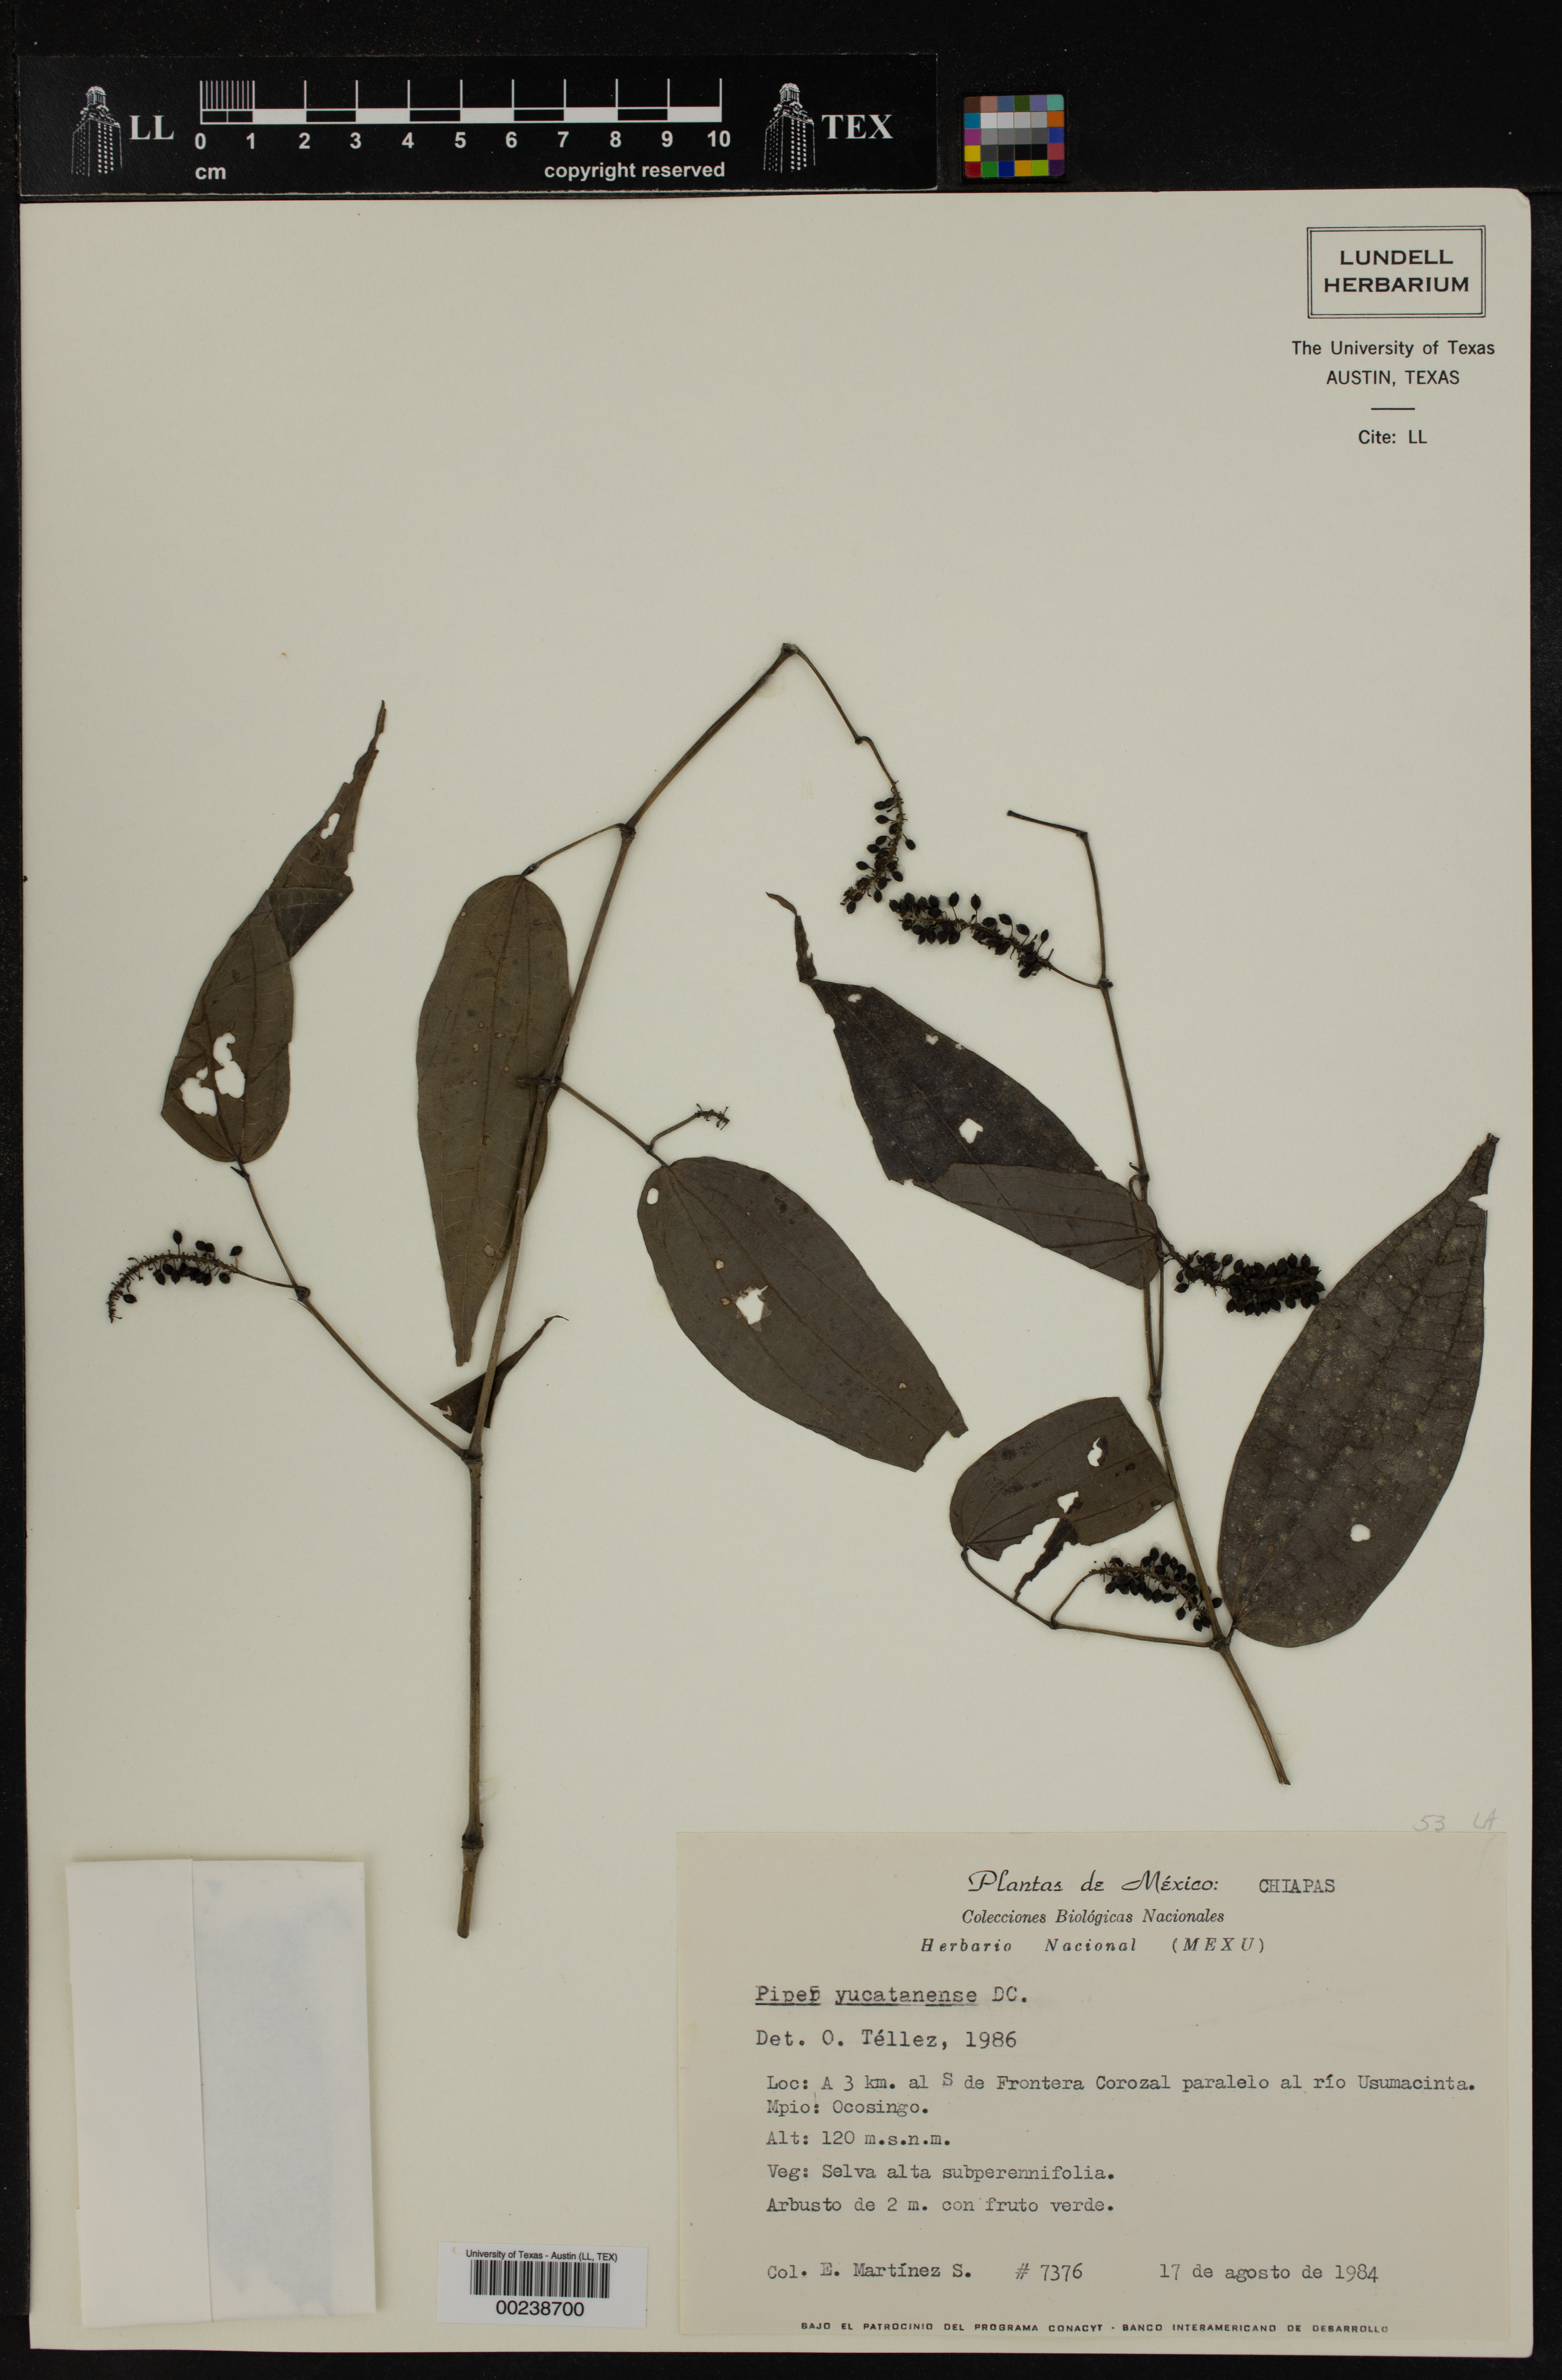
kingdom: Plantae
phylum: Tracheophyta
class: Magnoliopsida
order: Piperales
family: Piperaceae
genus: Piper
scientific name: Piper yucatanense
